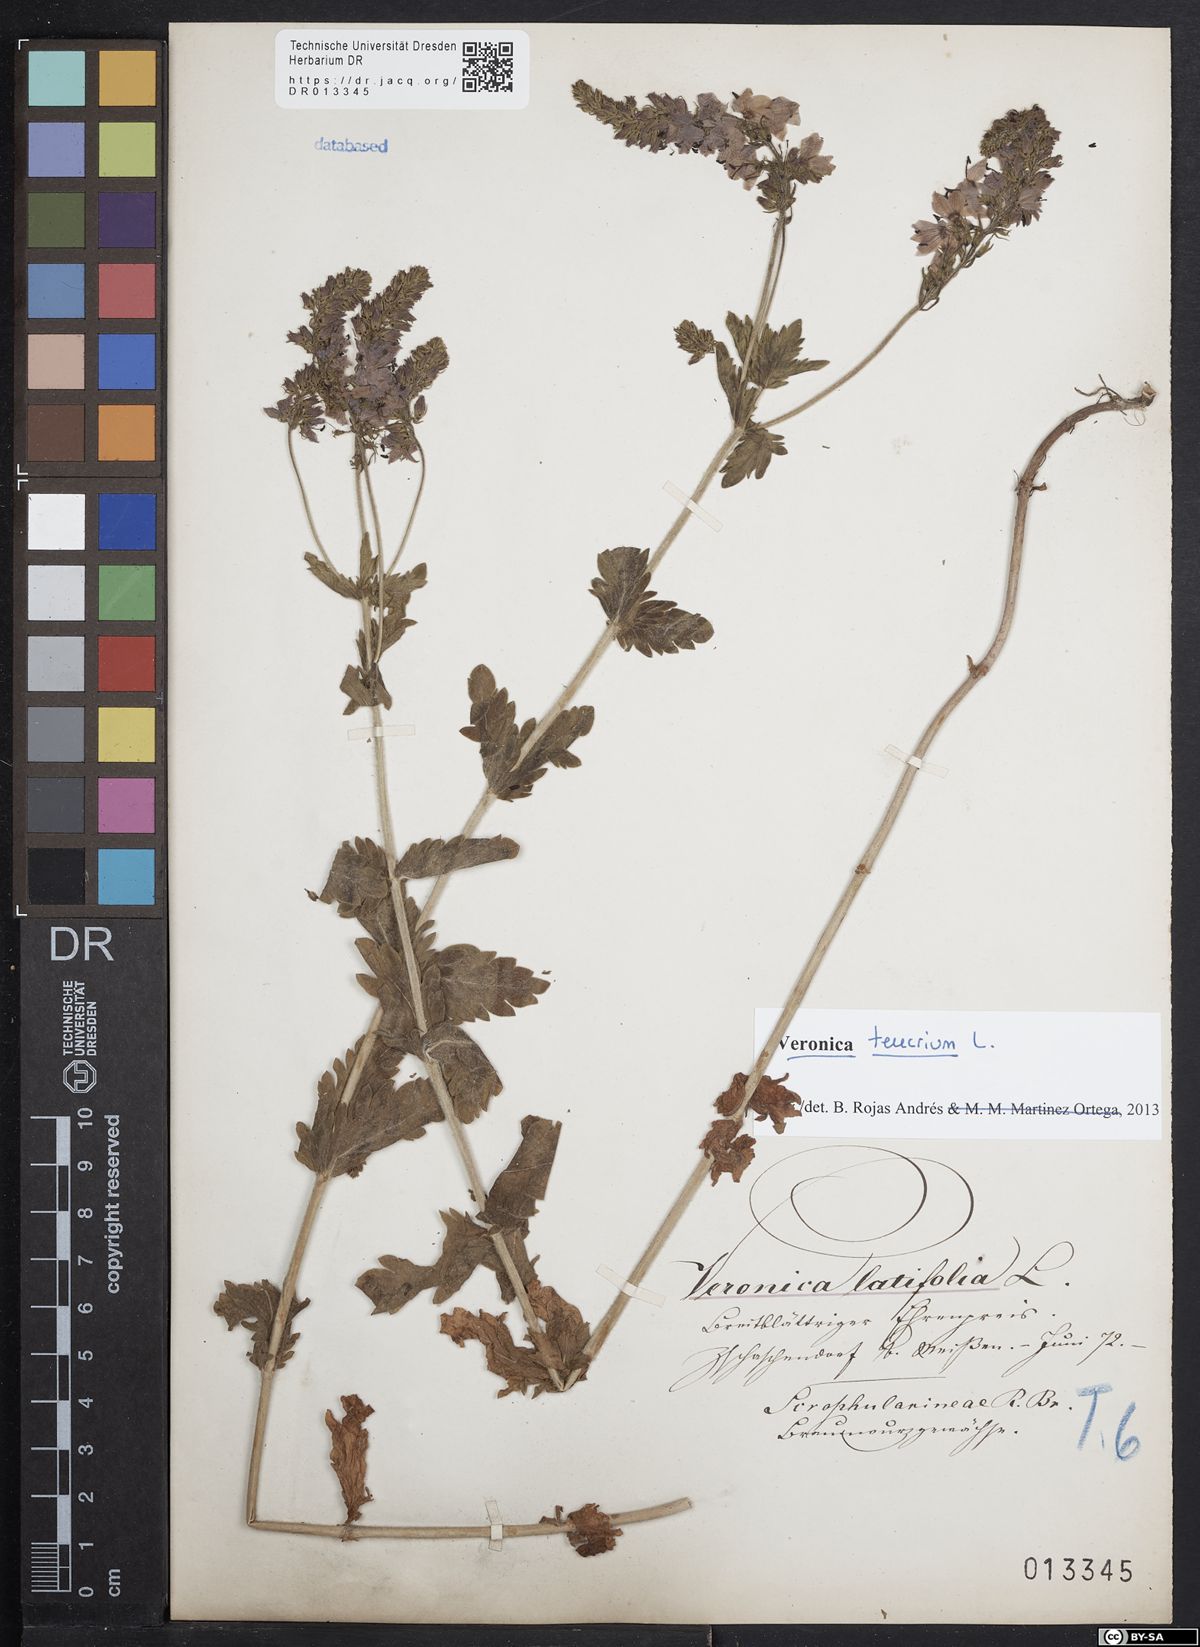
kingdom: Plantae
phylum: Tracheophyta
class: Magnoliopsida
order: Lamiales
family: Plantaginaceae
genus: Veronica
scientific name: Veronica teucrium
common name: Large speedwell
